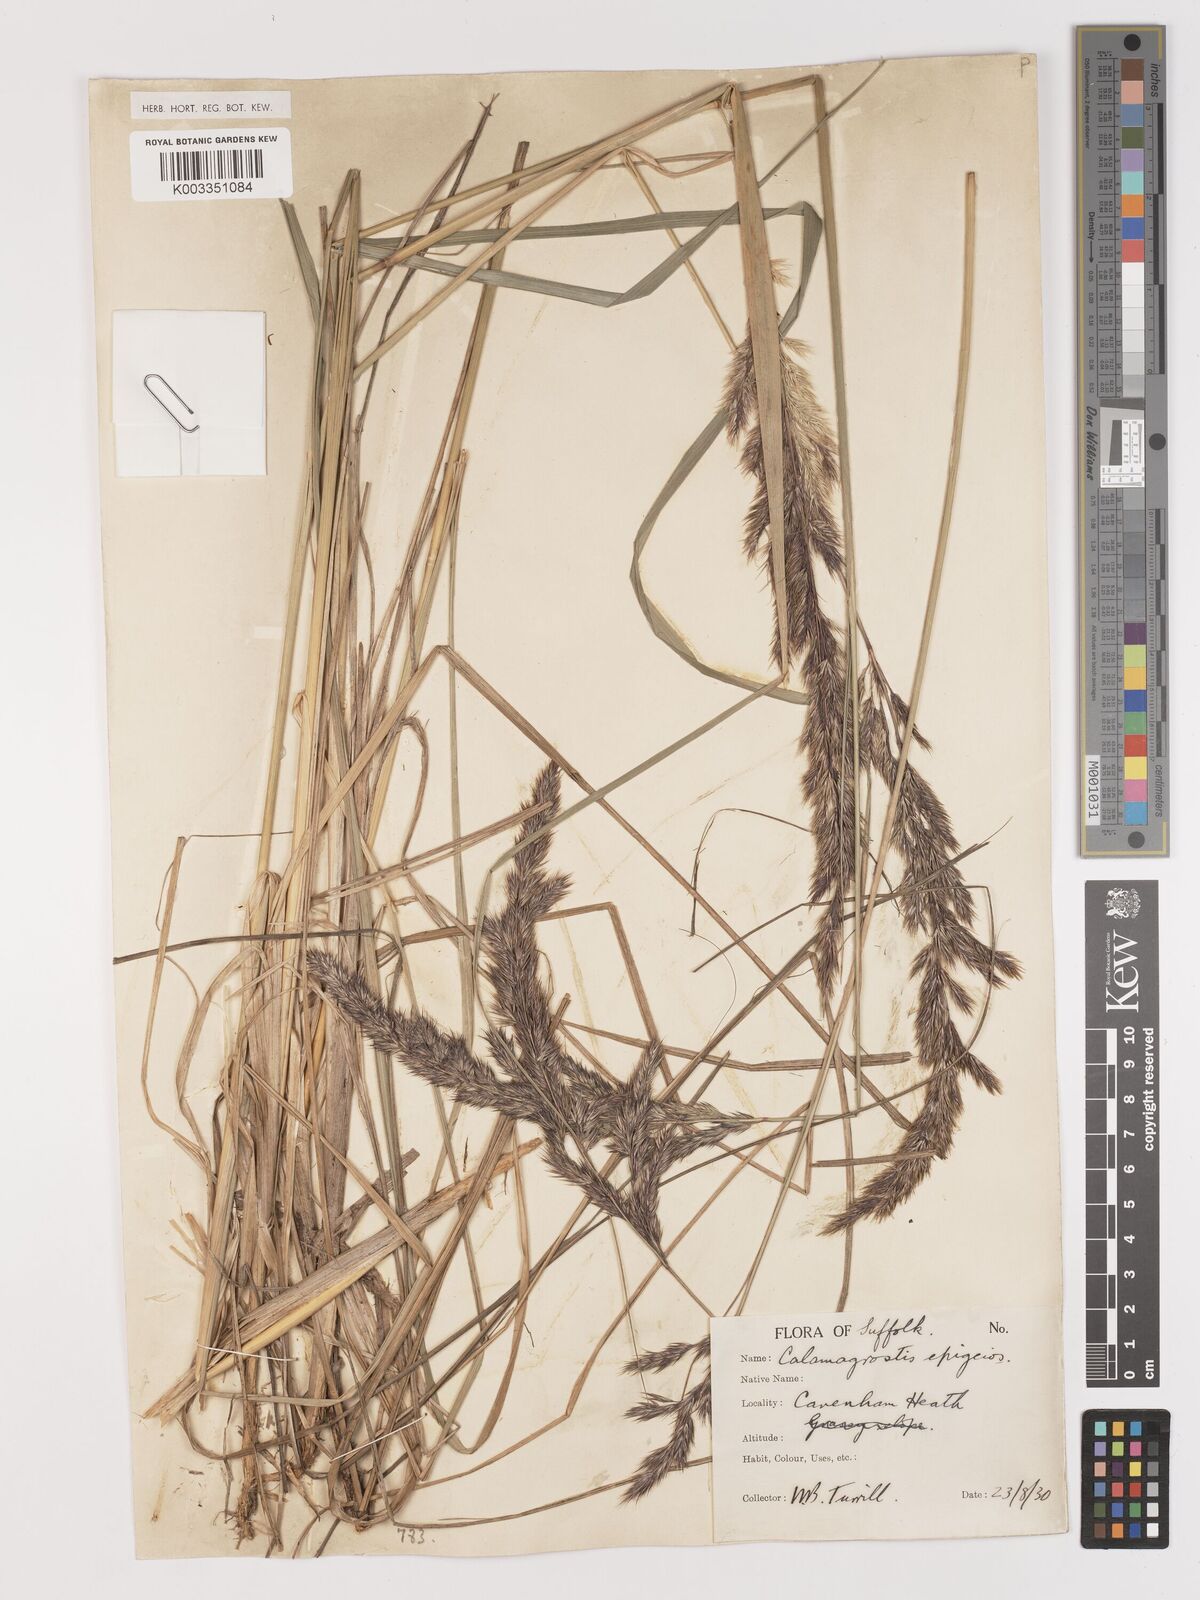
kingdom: Plantae
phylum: Tracheophyta
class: Liliopsida
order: Poales
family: Poaceae
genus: Calamagrostis
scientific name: Calamagrostis
